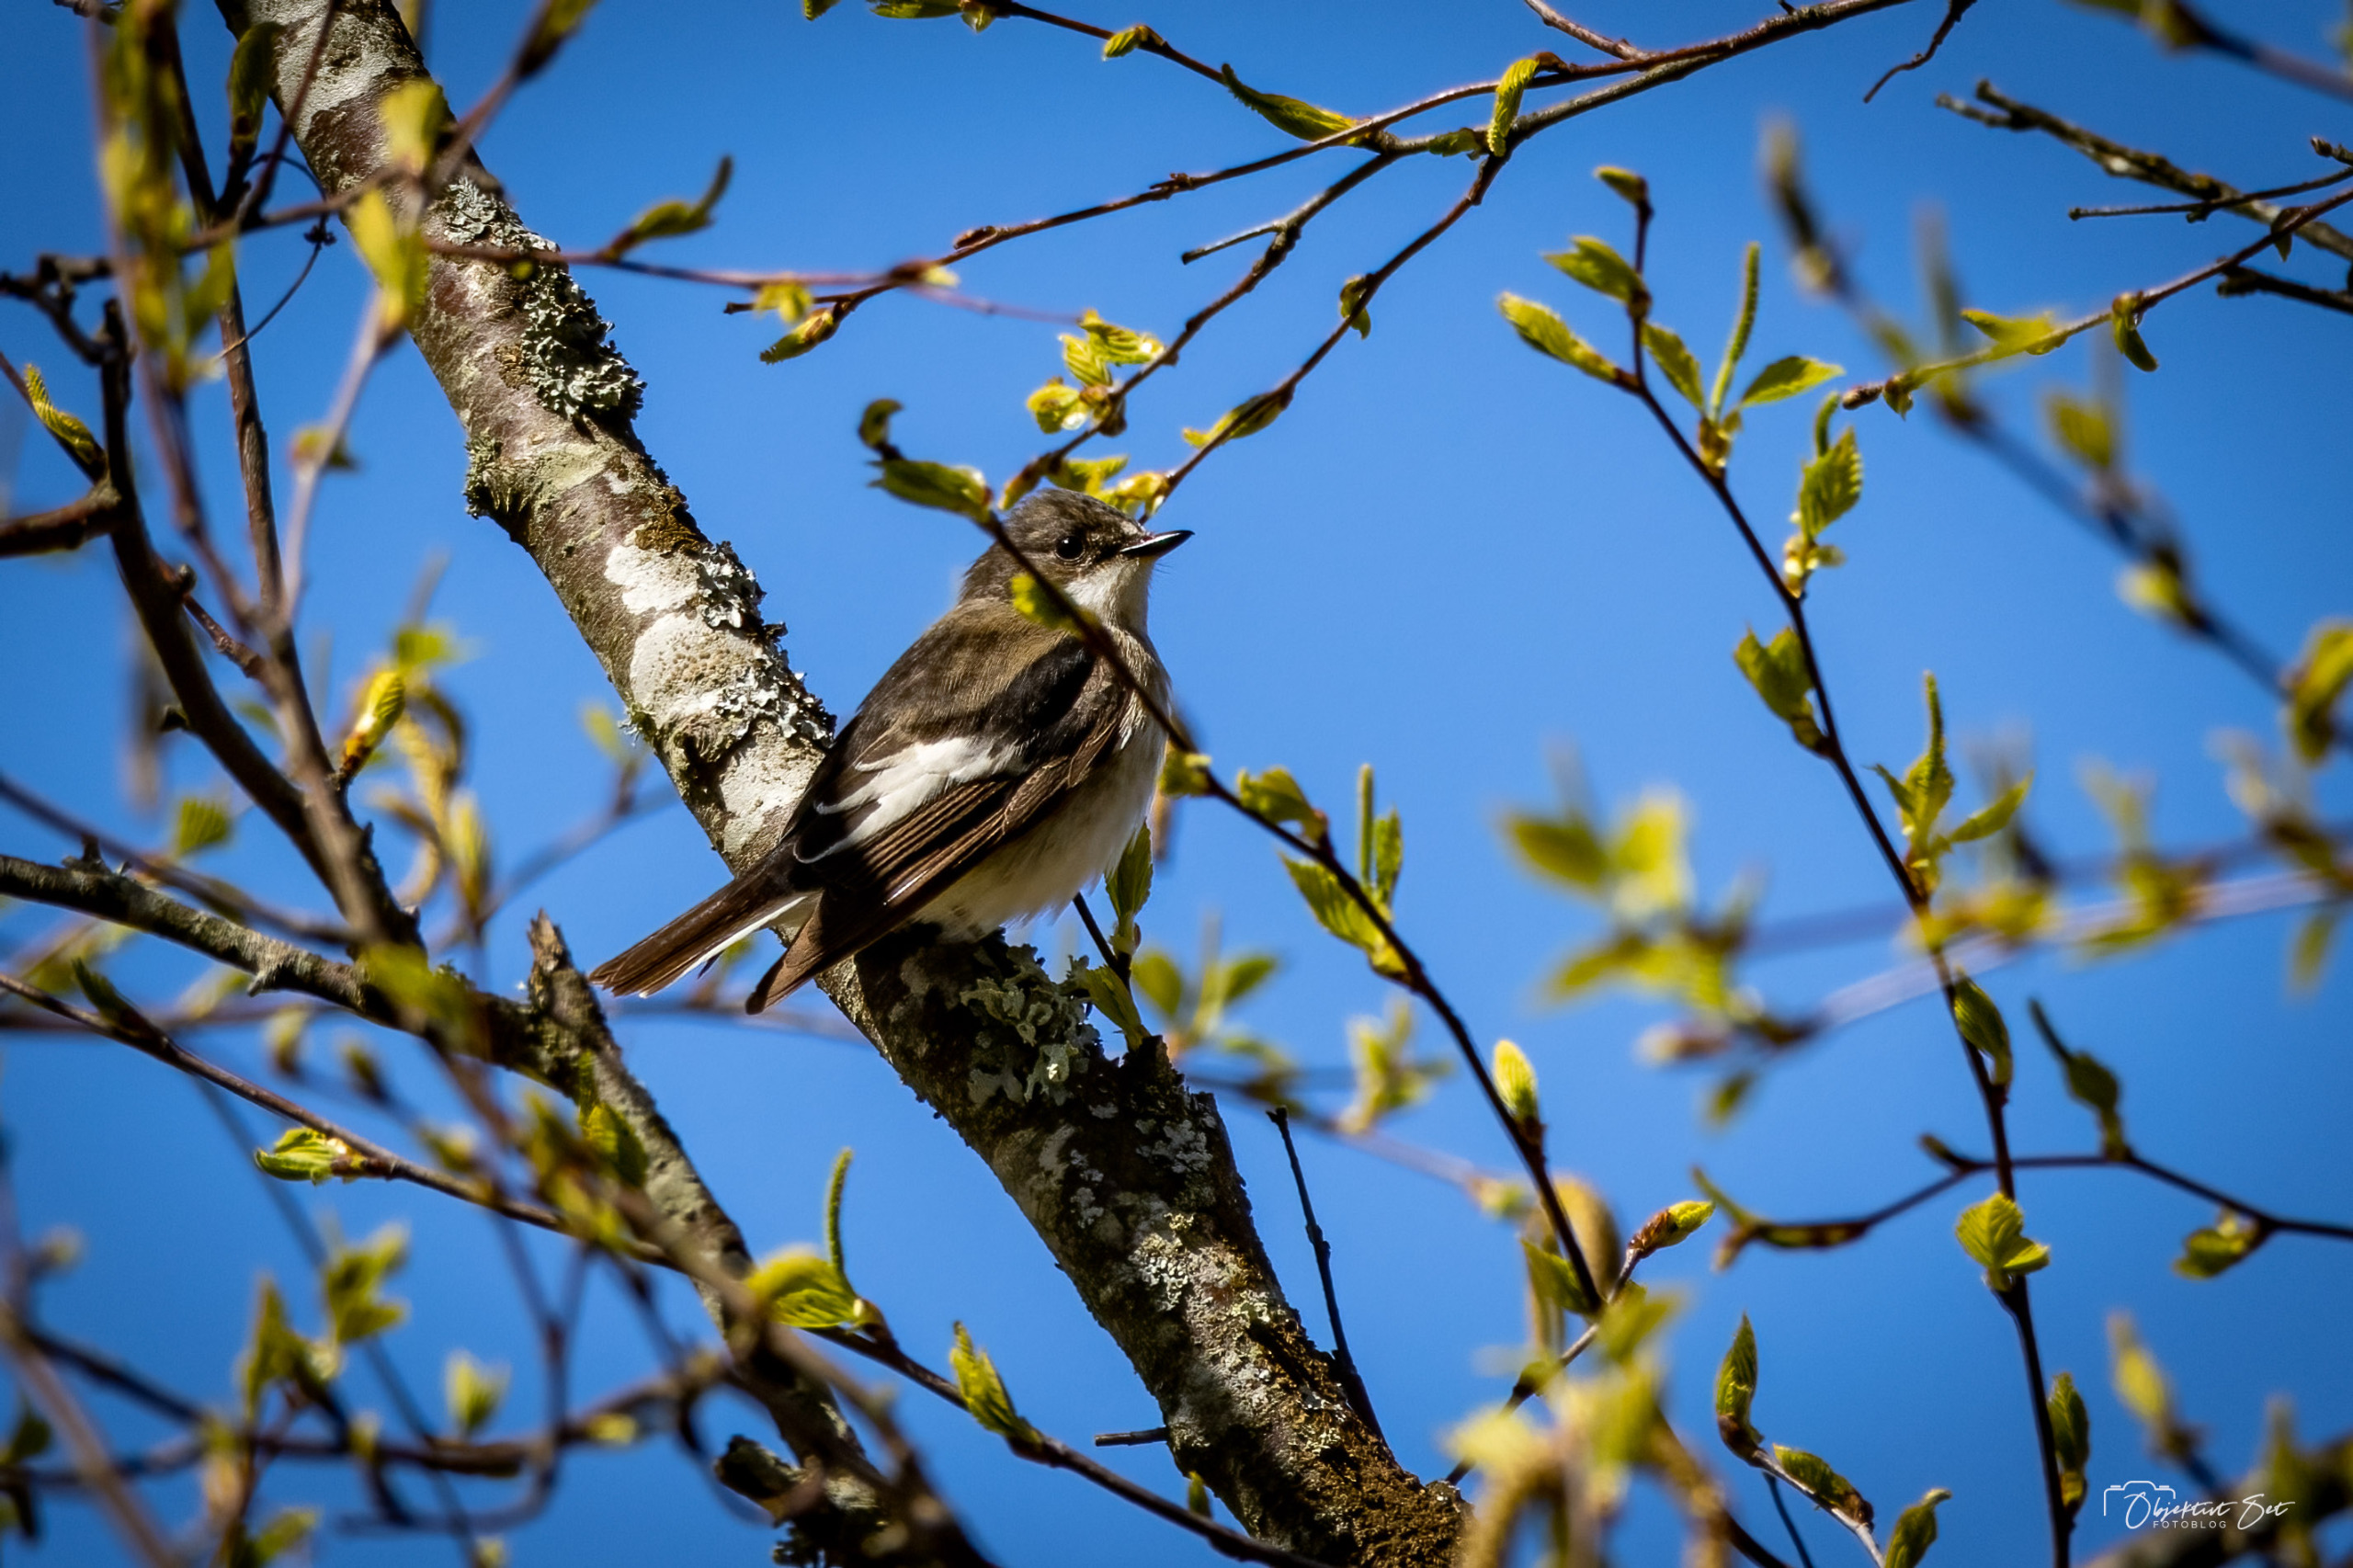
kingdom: Animalia
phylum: Chordata
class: Aves
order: Passeriformes
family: Muscicapidae
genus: Ficedula
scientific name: Ficedula hypoleuca
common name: Broget fluesnapper
